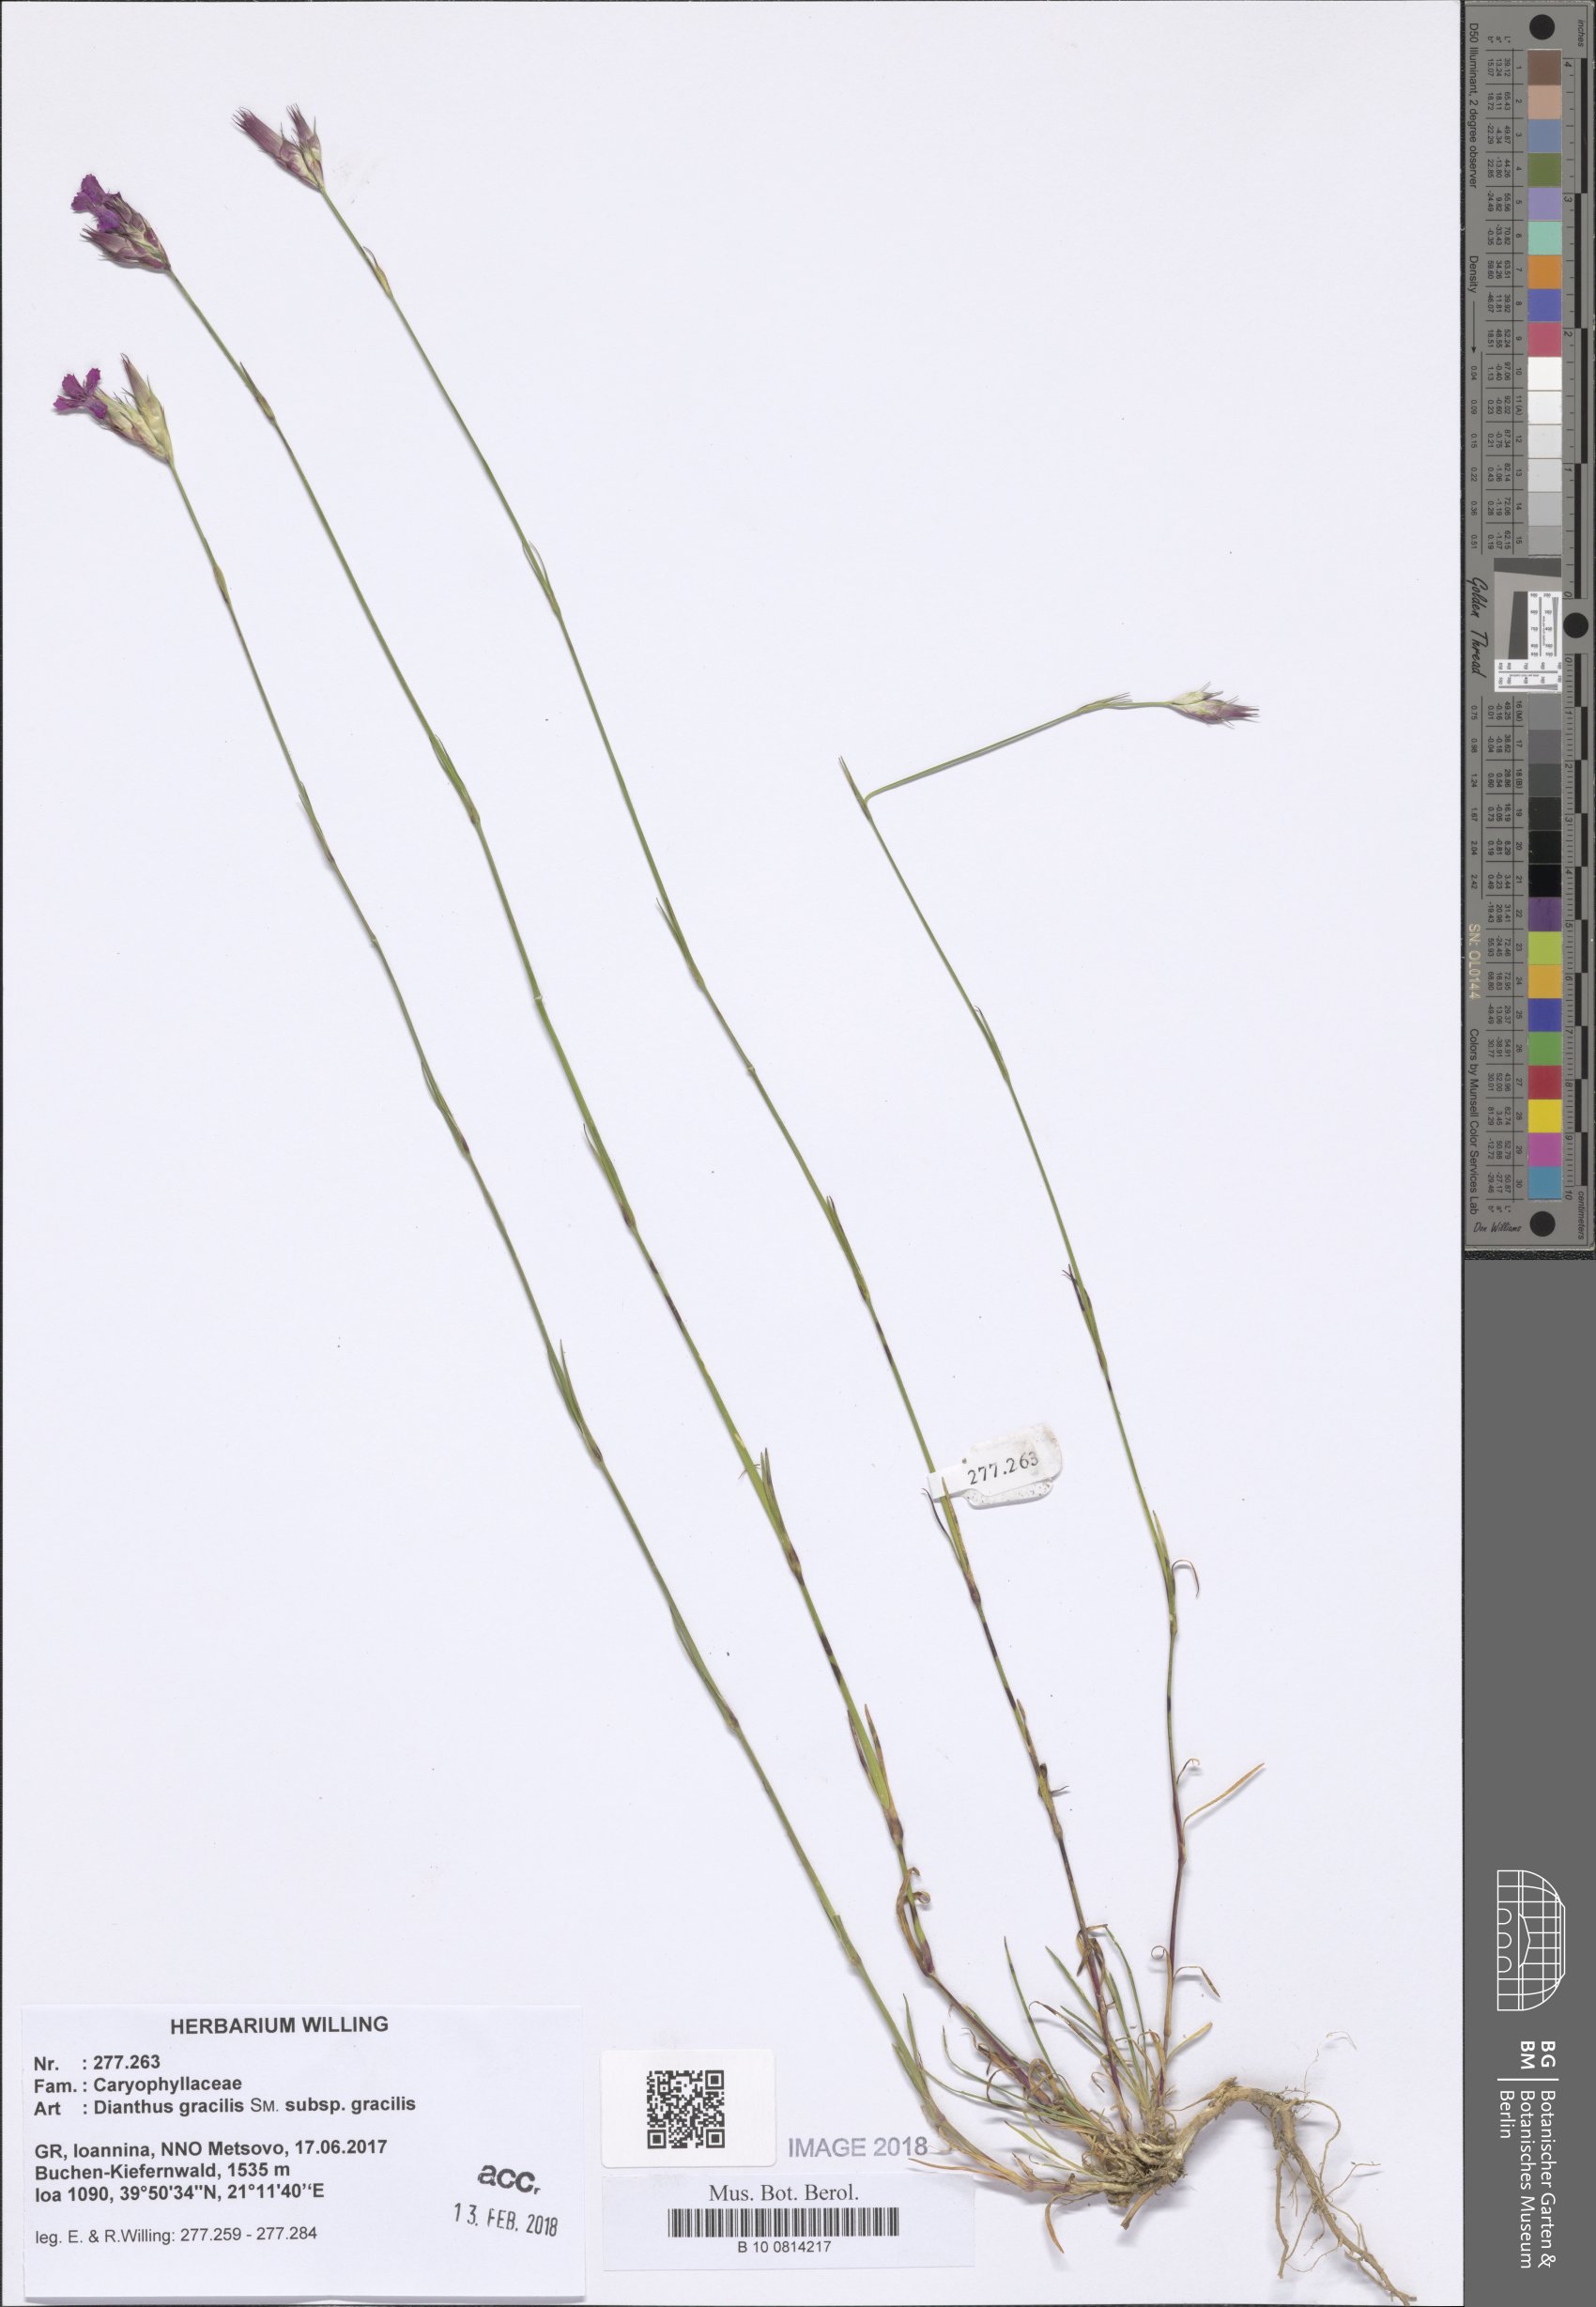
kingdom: Plantae
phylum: Tracheophyta
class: Magnoliopsida
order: Caryophyllales
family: Caryophyllaceae
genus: Dianthus
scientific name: Dianthus gracilis
